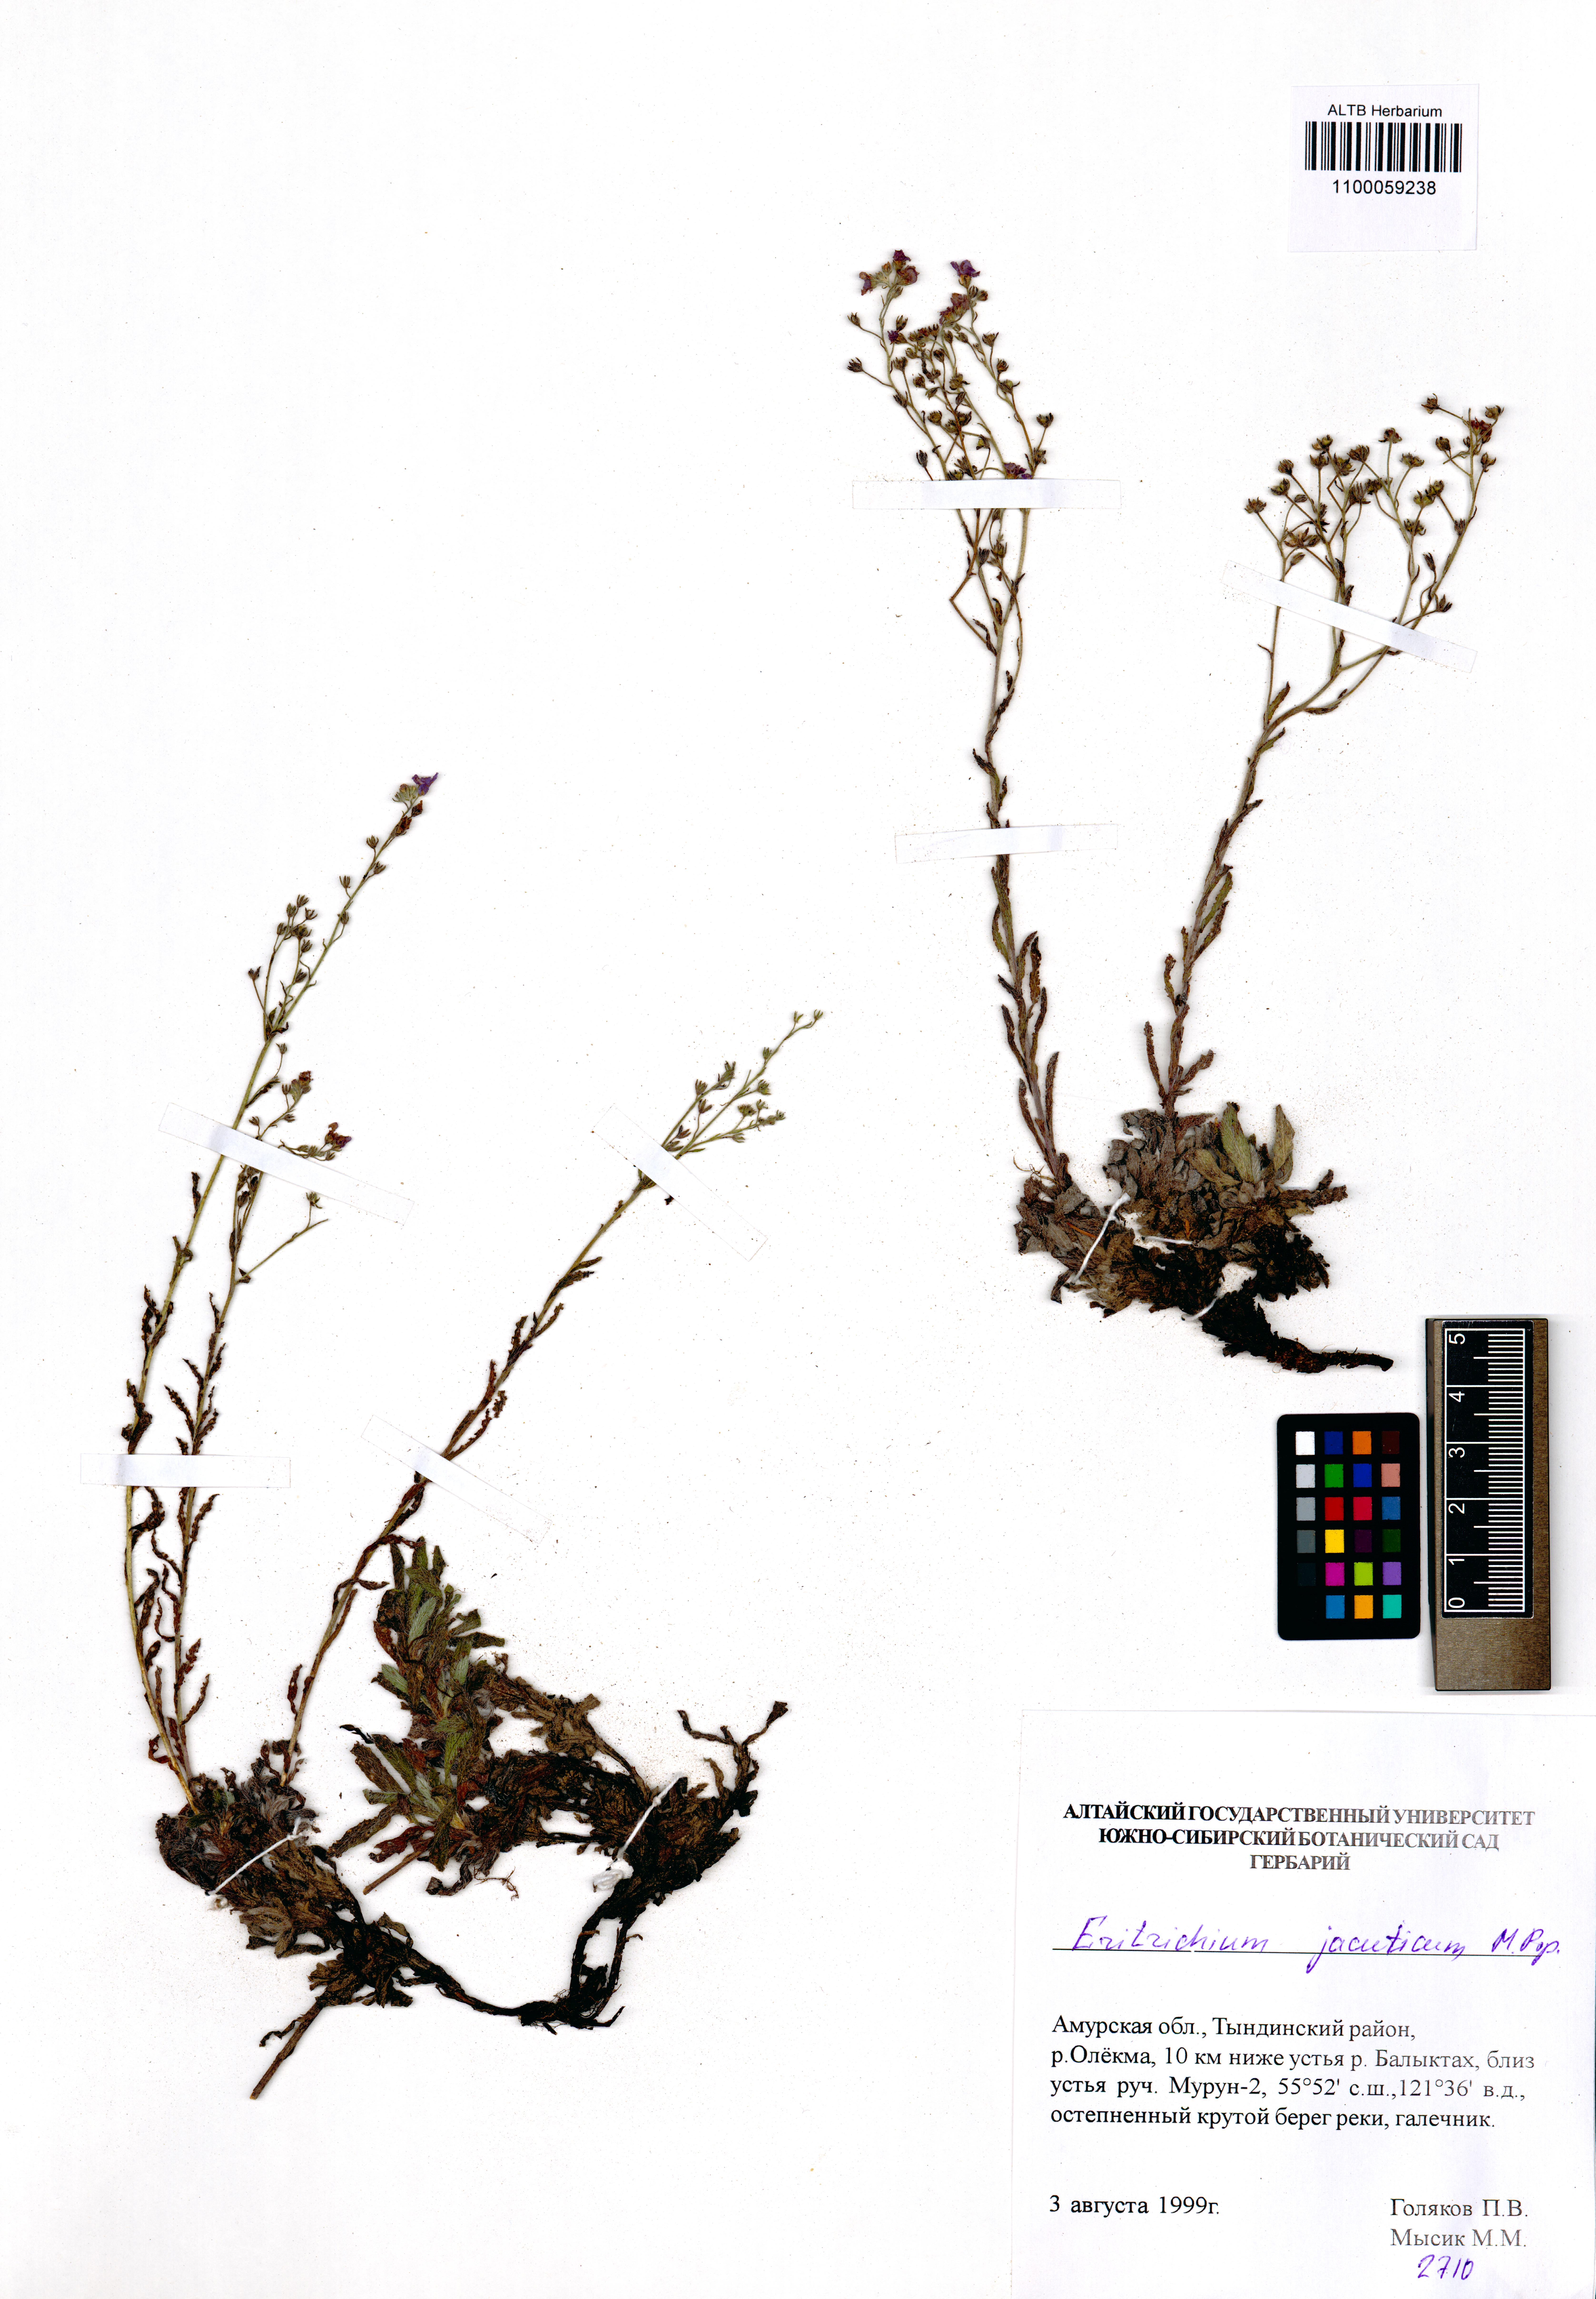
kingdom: Plantae
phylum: Tracheophyta
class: Magnoliopsida
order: Boraginales
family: Boraginaceae
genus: Eritrichium
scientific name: Eritrichium jacuticum
